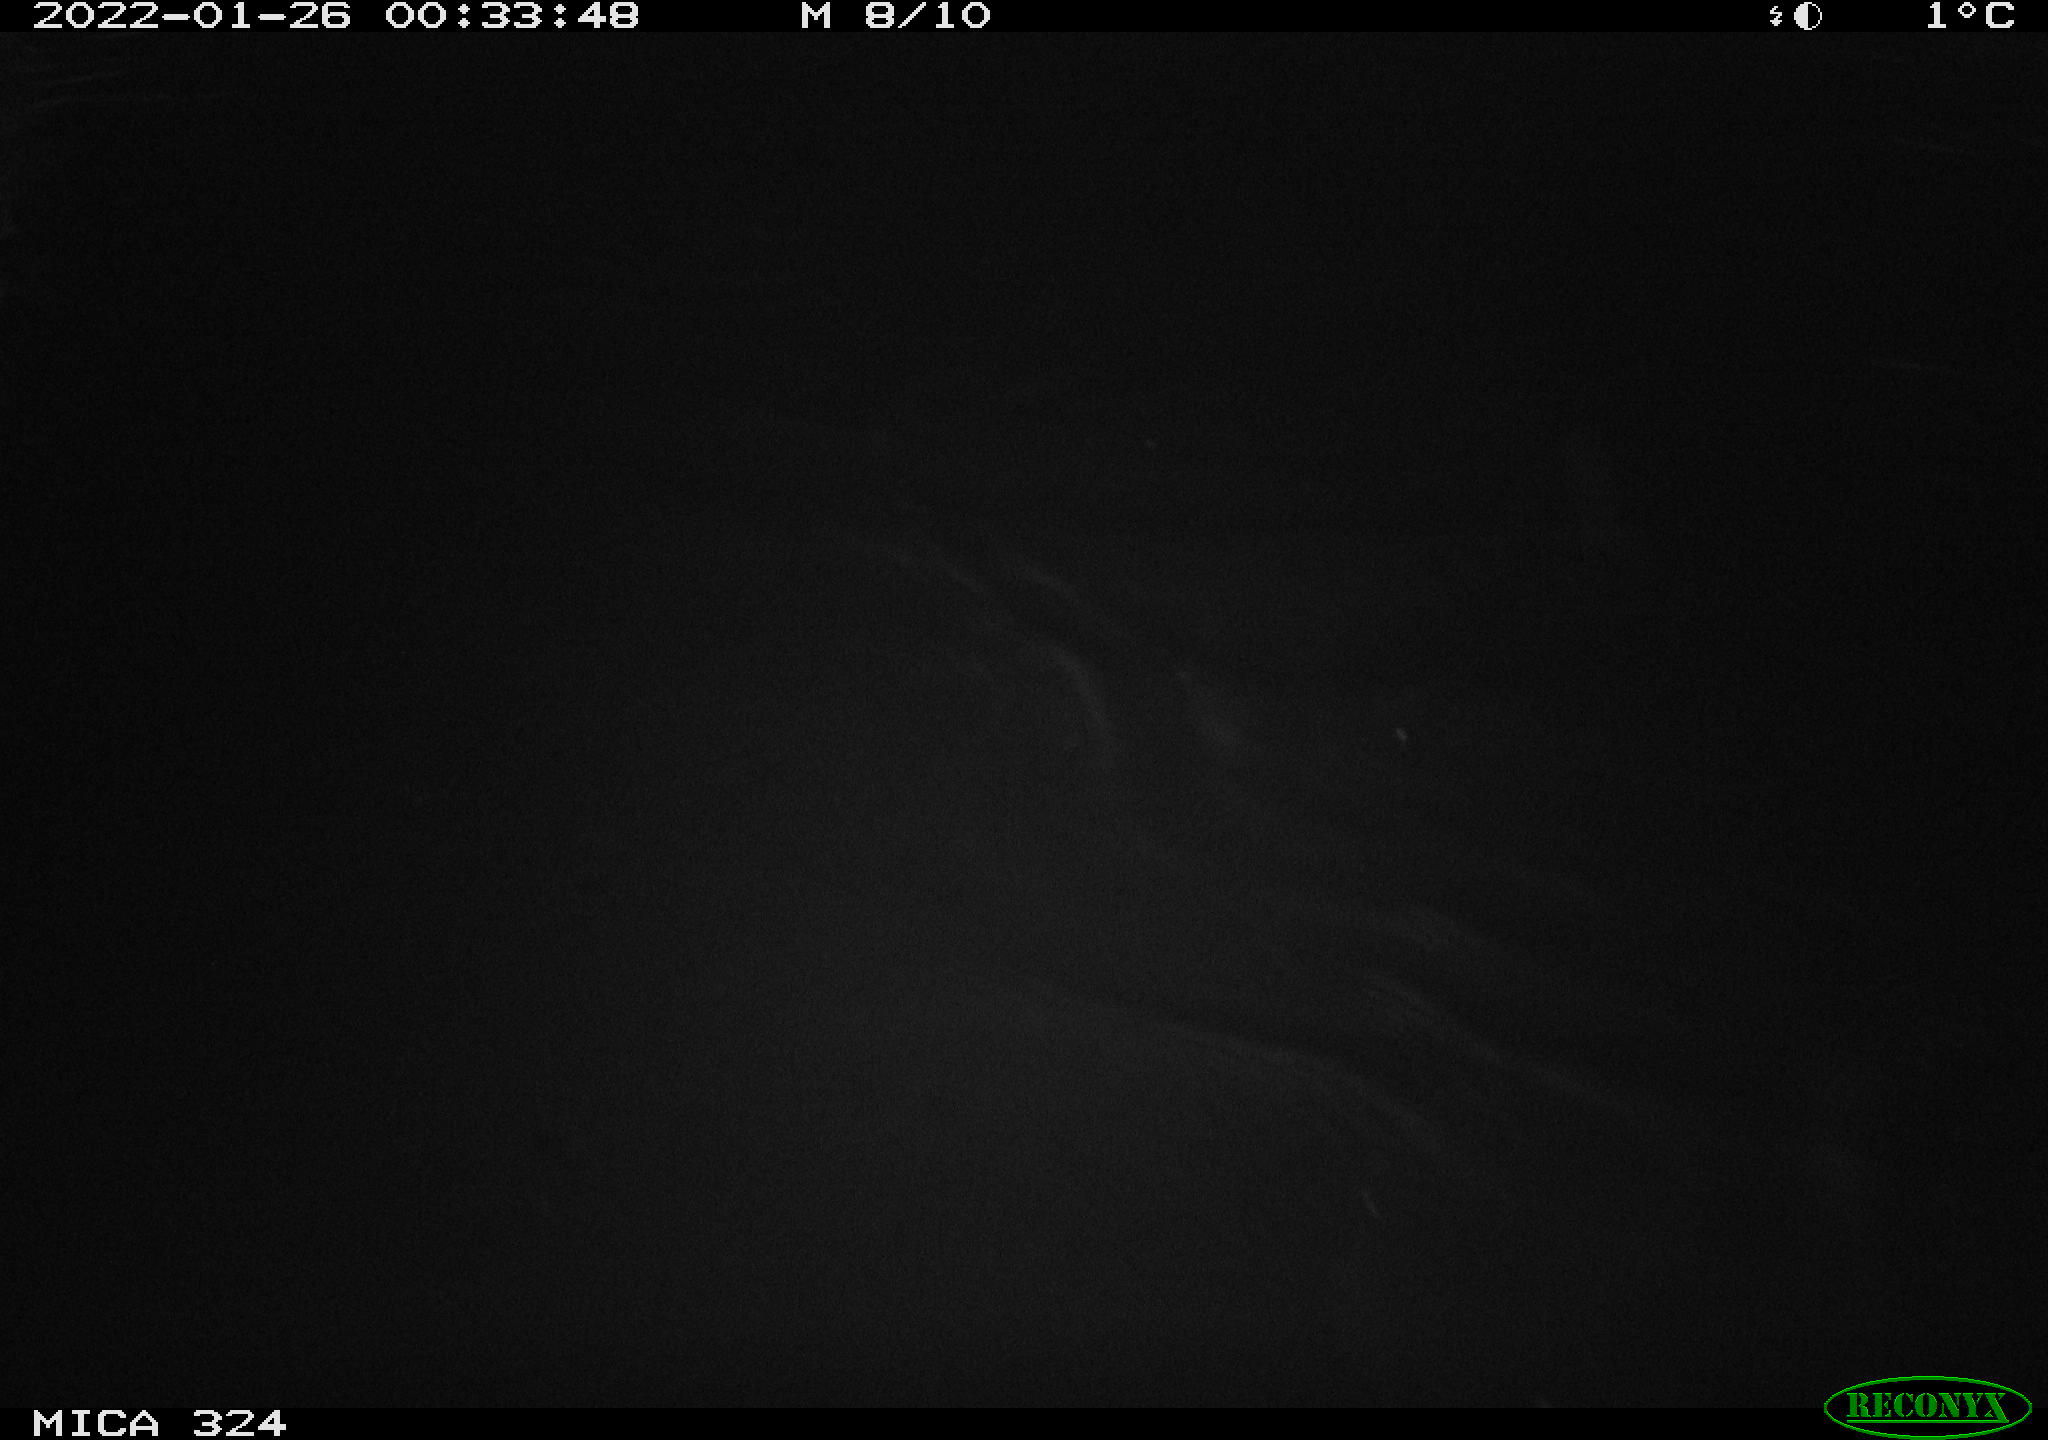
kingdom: Animalia
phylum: Chordata
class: Mammalia
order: Rodentia
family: Cricetidae
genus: Ondatra
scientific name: Ondatra zibethicus
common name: Muskrat
